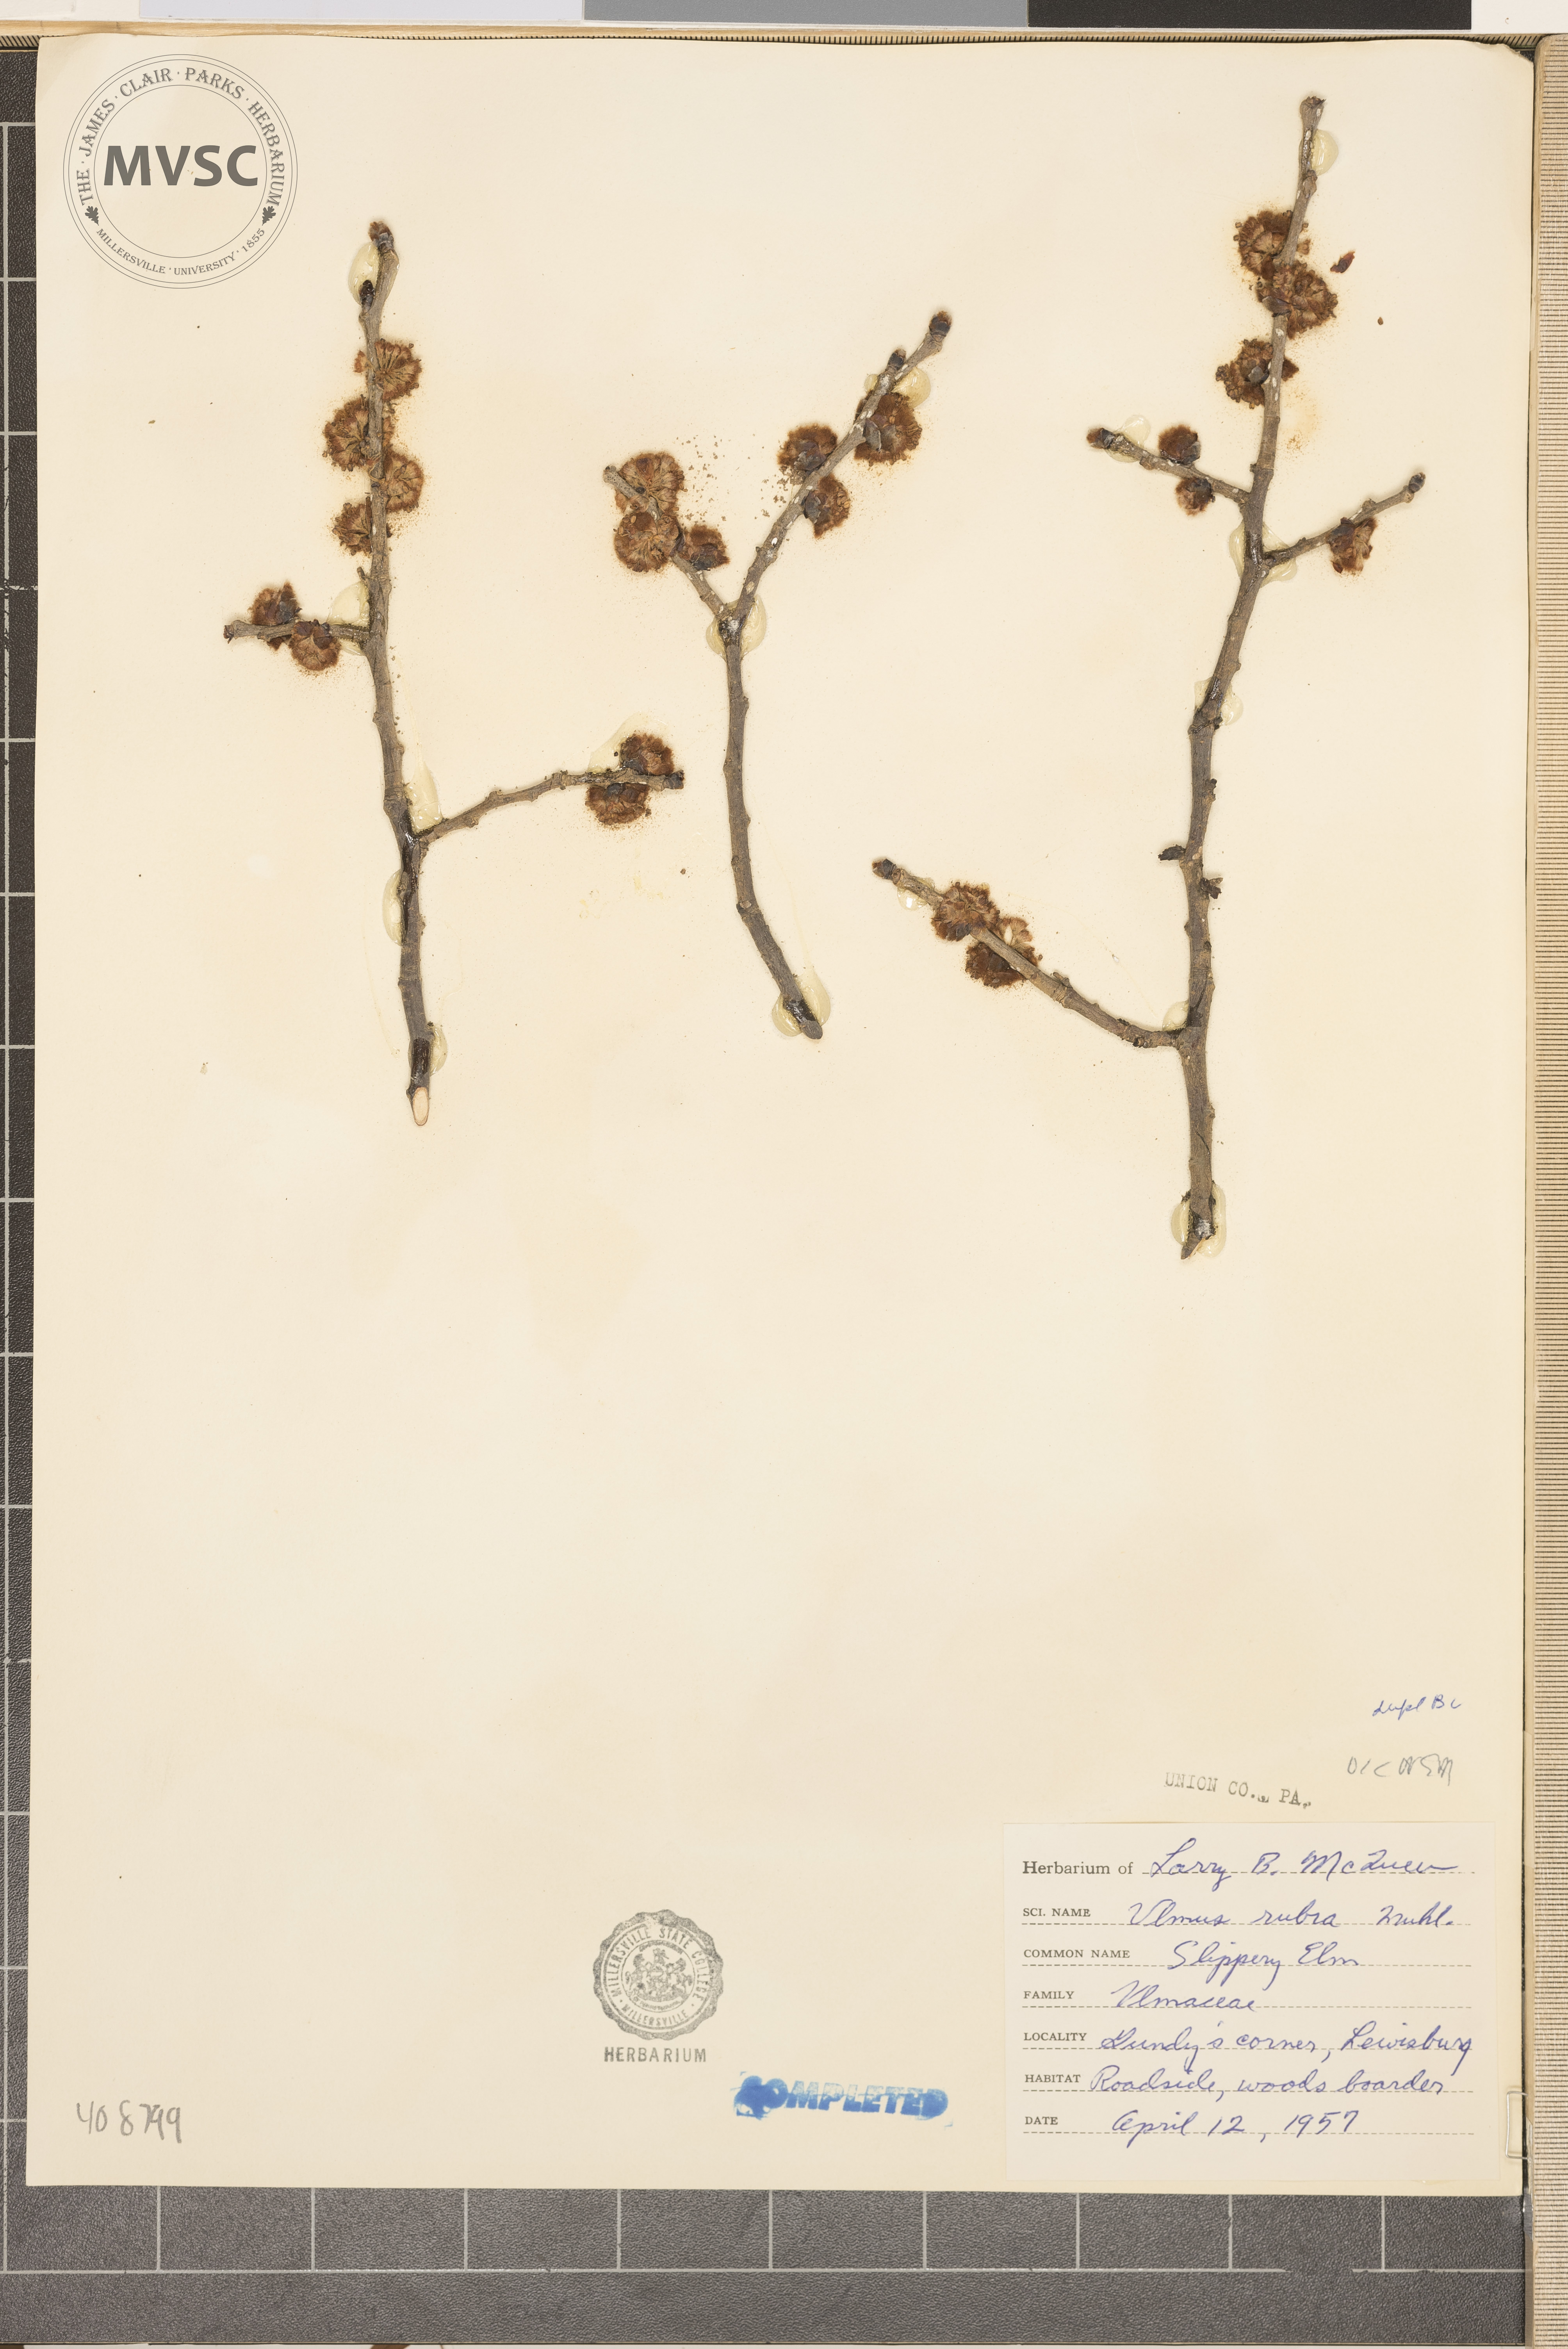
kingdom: Plantae
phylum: Tracheophyta
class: Magnoliopsida
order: Rosales
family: Ulmaceae
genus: Ulmus
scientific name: Ulmus rubra
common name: slippery elm
